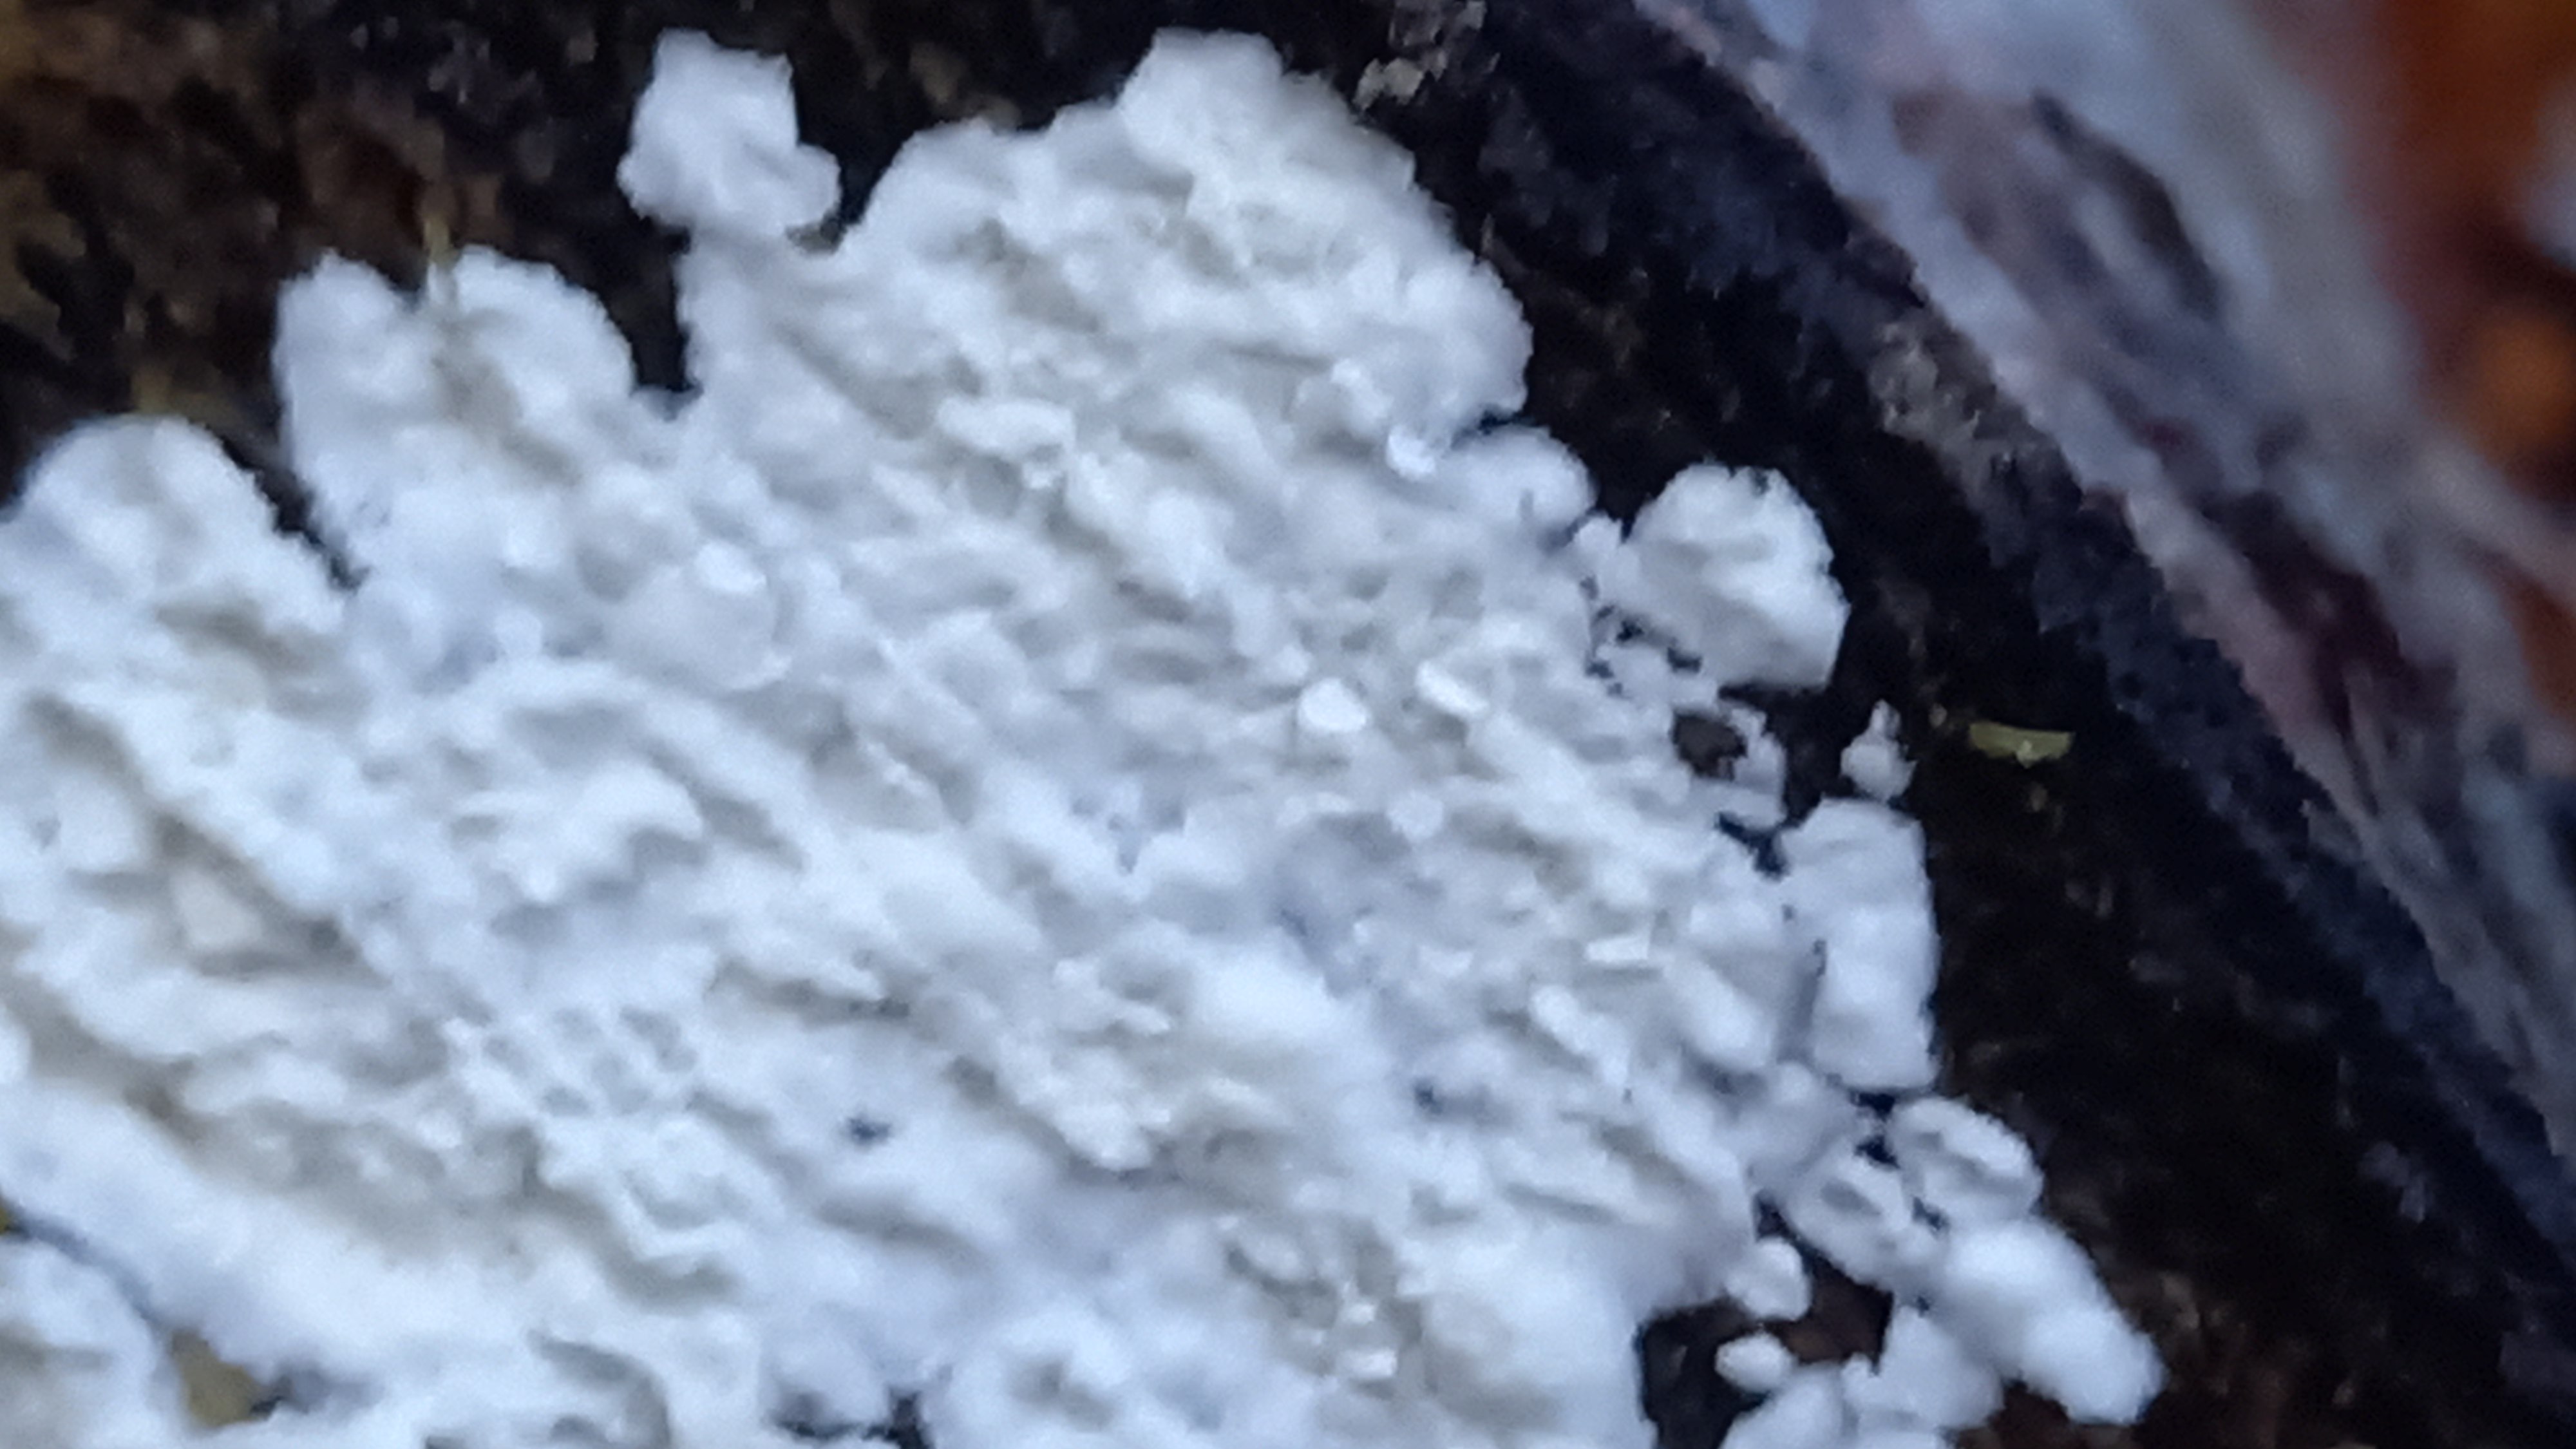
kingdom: Fungi
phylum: Basidiomycota
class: Agaricomycetes
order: Corticiales
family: Corticiaceae
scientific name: Corticiaceae
